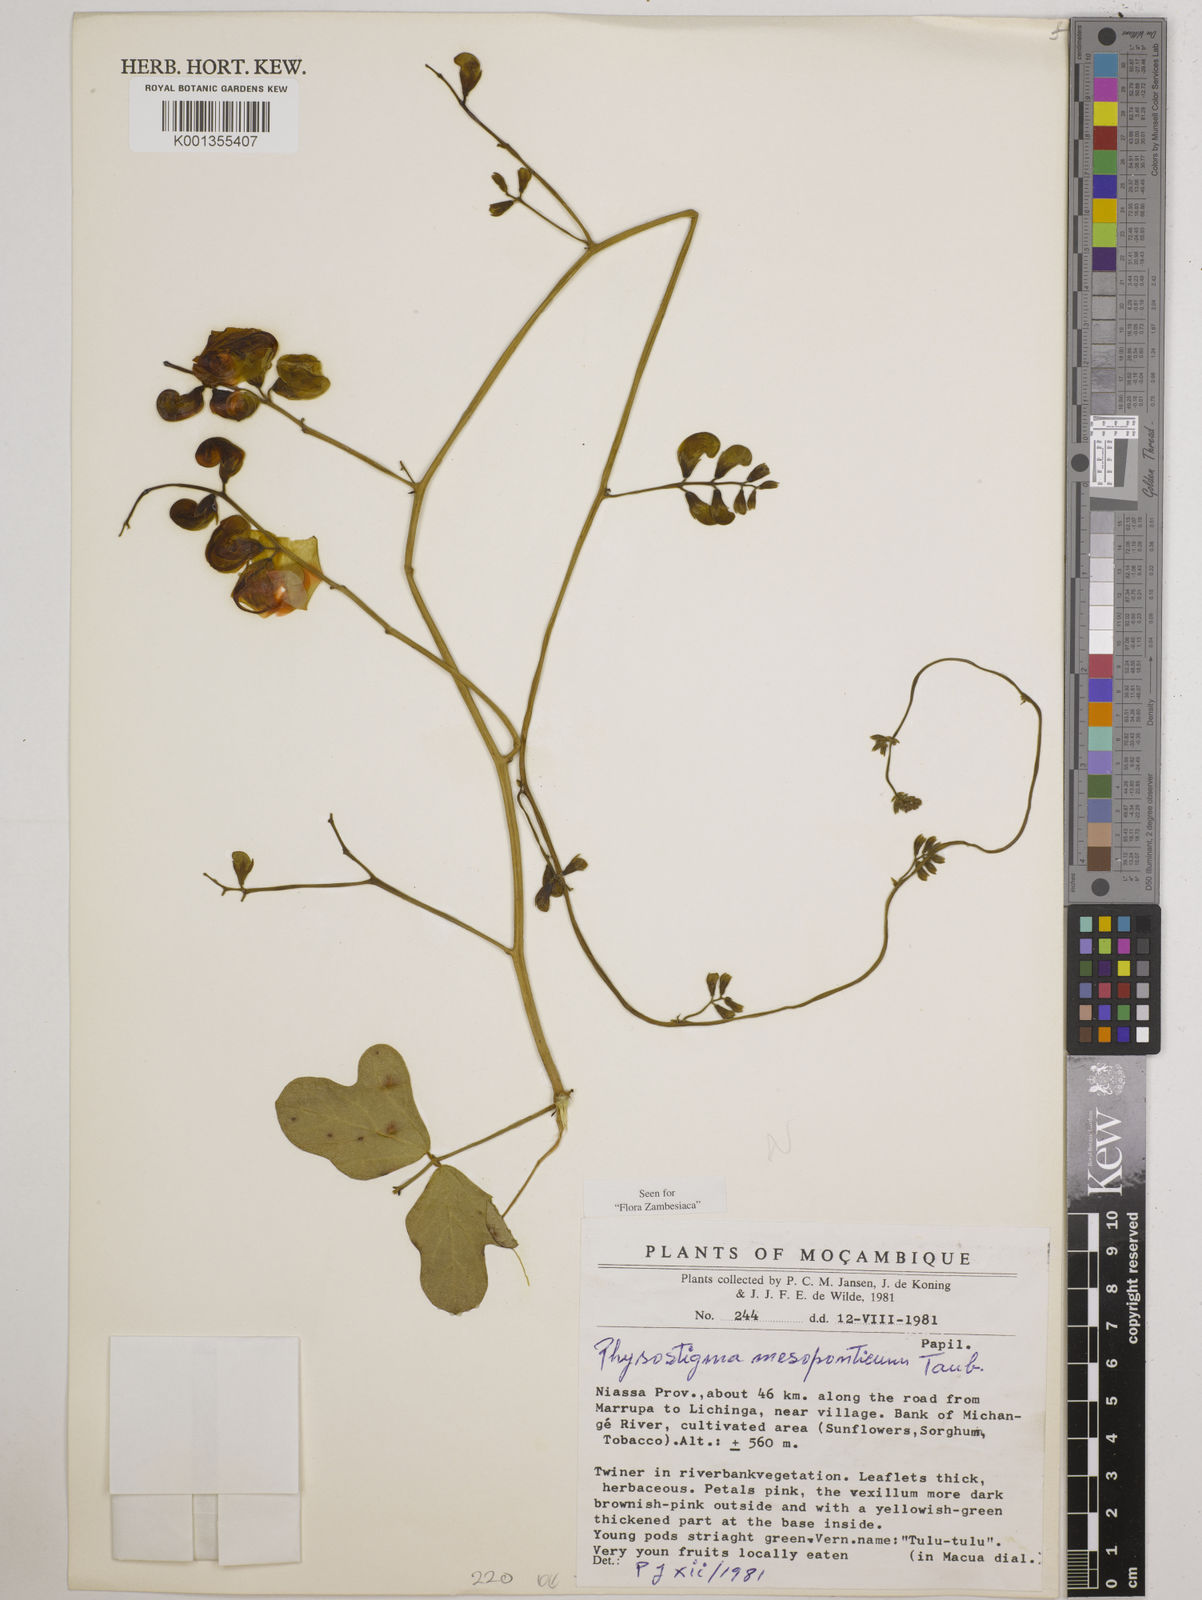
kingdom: Plantae
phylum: Tracheophyta
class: Magnoliopsida
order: Fabales
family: Fabaceae
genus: Physostigma
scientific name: Physostigma mesoponticum
